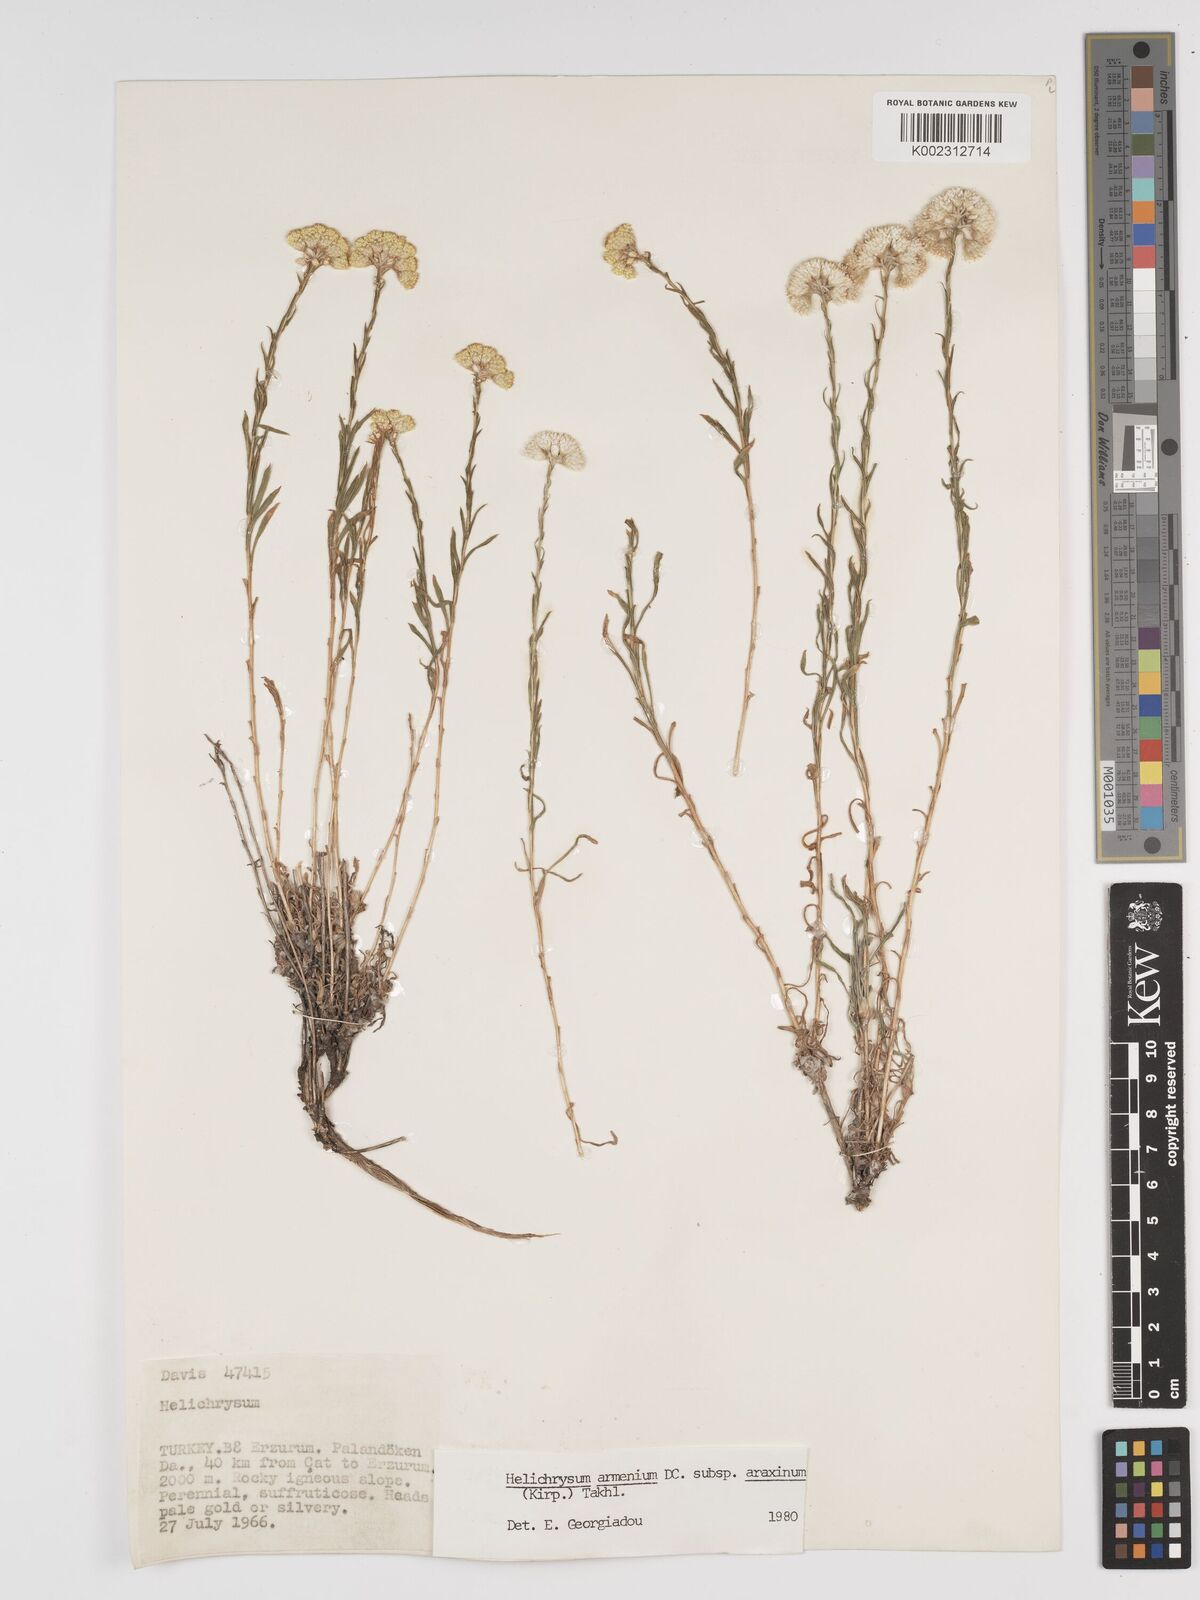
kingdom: Plantae
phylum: Tracheophyta
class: Magnoliopsida
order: Asterales
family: Asteraceae
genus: Helichrysum
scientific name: Helichrysum araxinum
